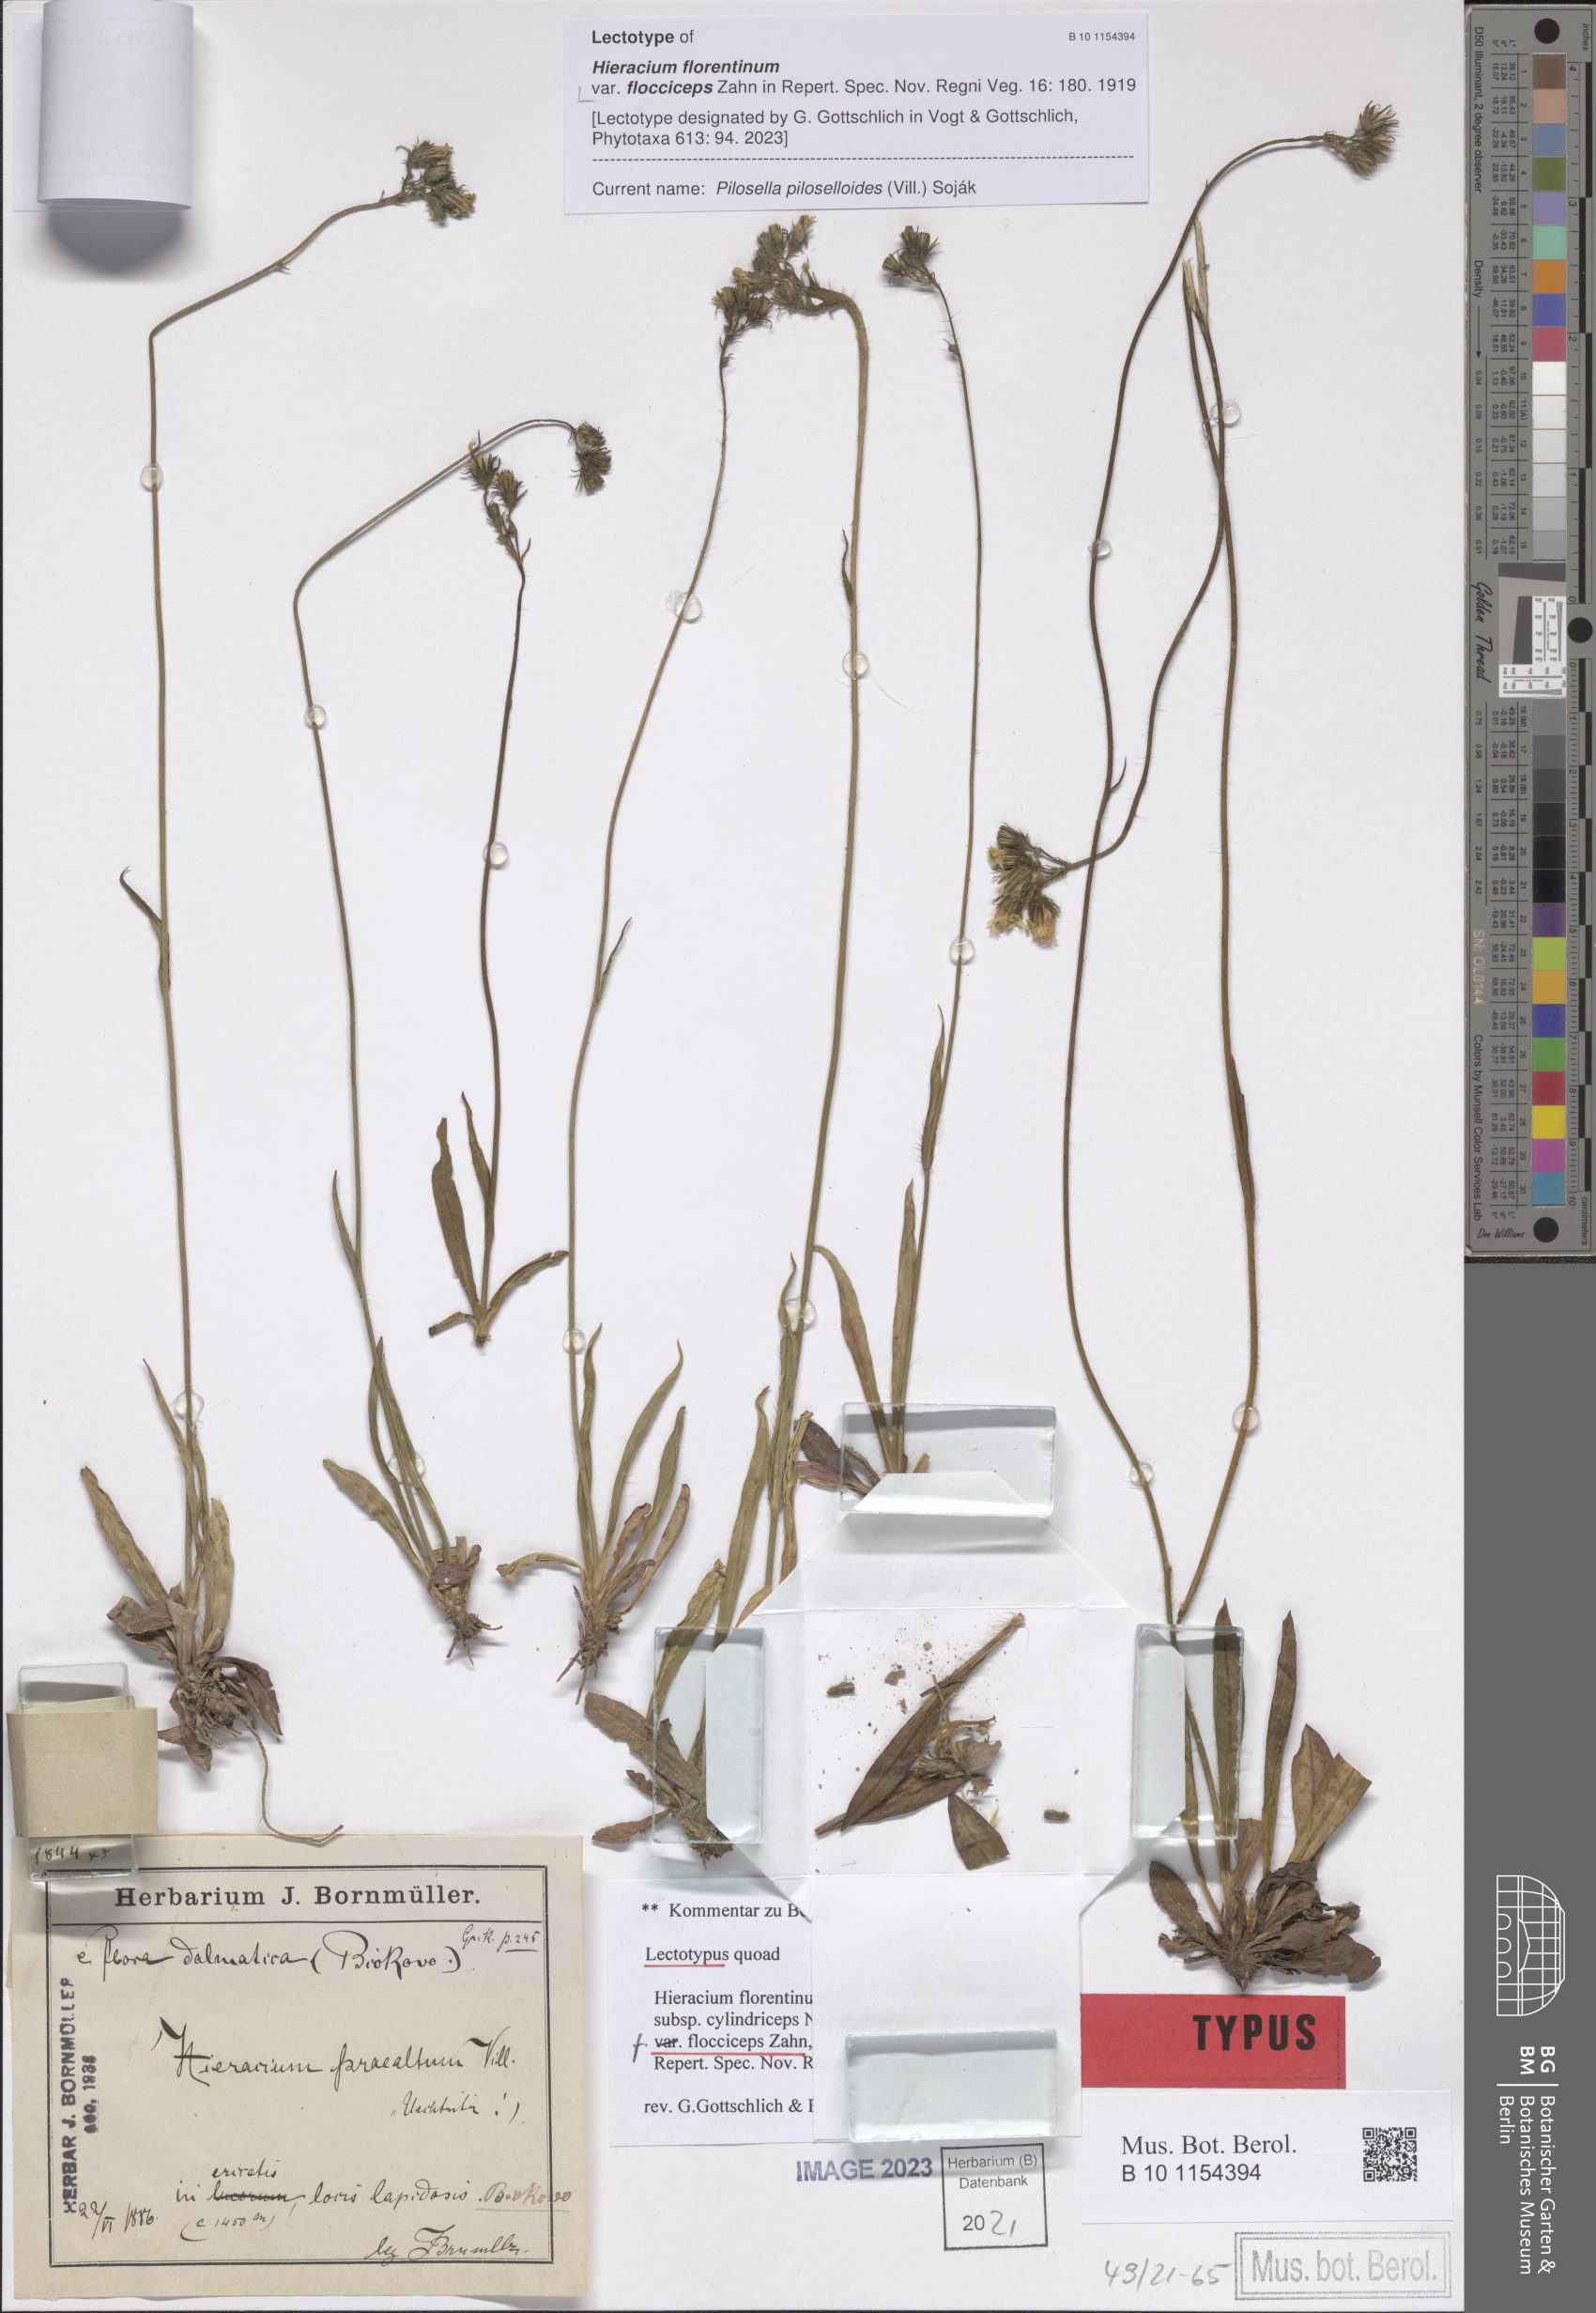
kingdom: Plantae
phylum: Tracheophyta
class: Magnoliopsida
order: Asterales
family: Asteraceae
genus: Hieracium
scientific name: Hieracium florentinum
